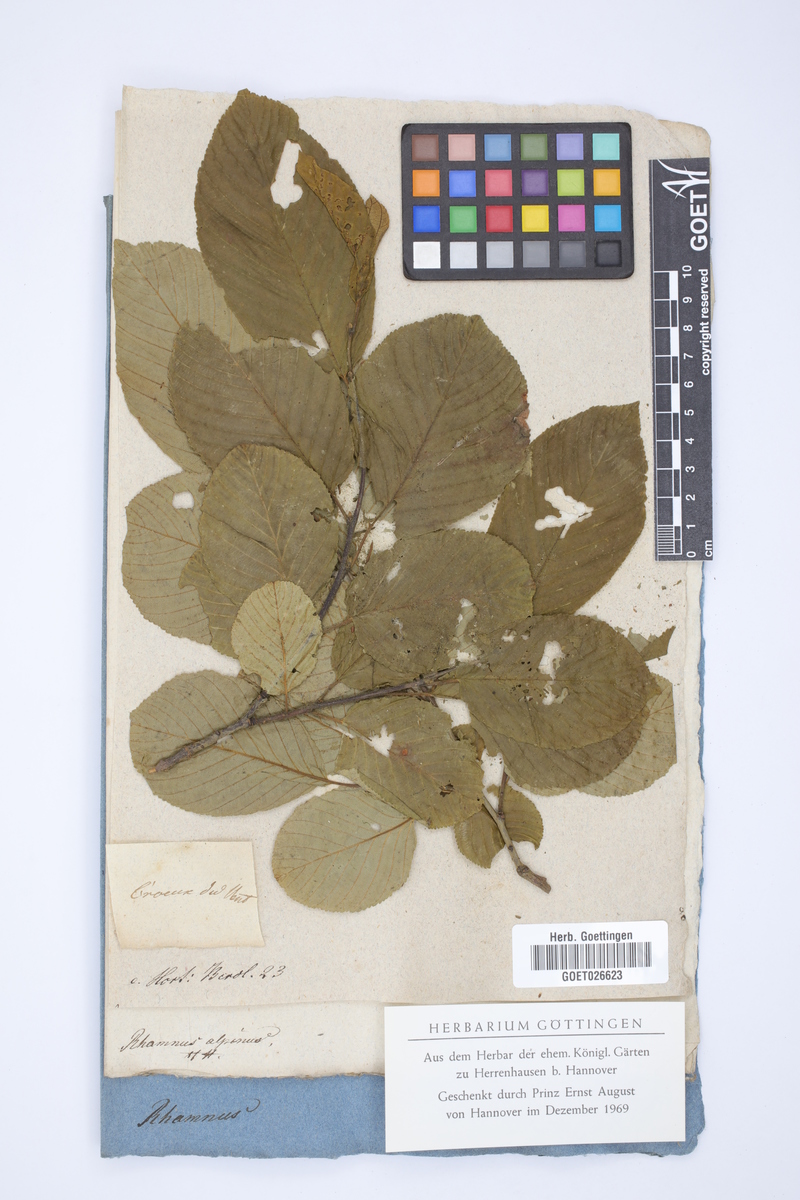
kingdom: Plantae
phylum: Tracheophyta
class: Magnoliopsida
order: Rosales
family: Rhamnaceae
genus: Atadinus
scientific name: Atadinus alpinus
